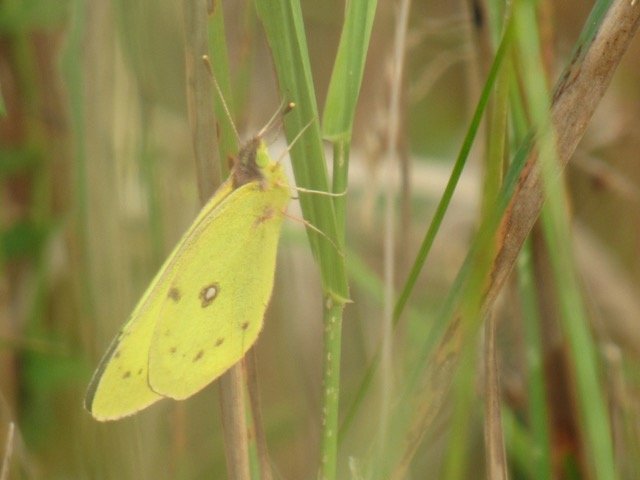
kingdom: Animalia
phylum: Arthropoda
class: Insecta
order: Lepidoptera
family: Pieridae
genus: Colias
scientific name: Colias philodice
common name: Clouded Sulphur
